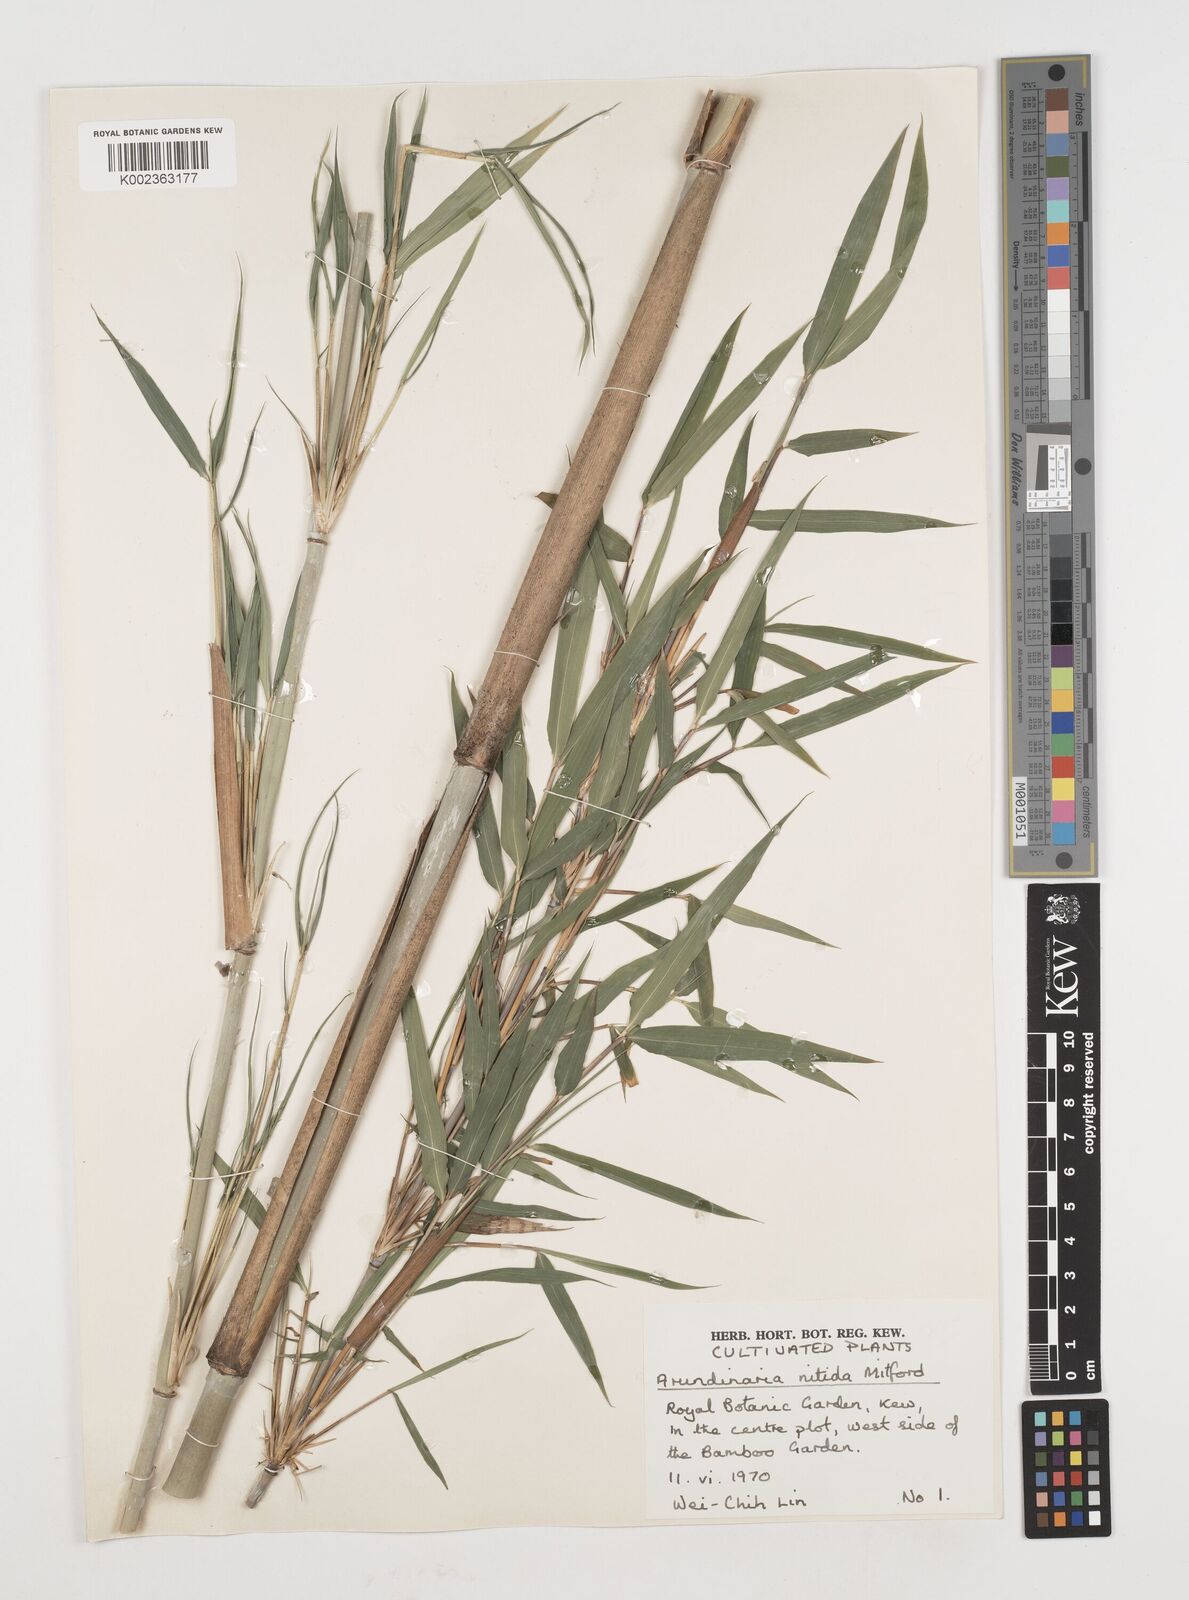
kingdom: Plantae
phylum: Tracheophyta
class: Liliopsida
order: Poales
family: Poaceae
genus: Fargesia
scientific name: Fargesia nitida ex
